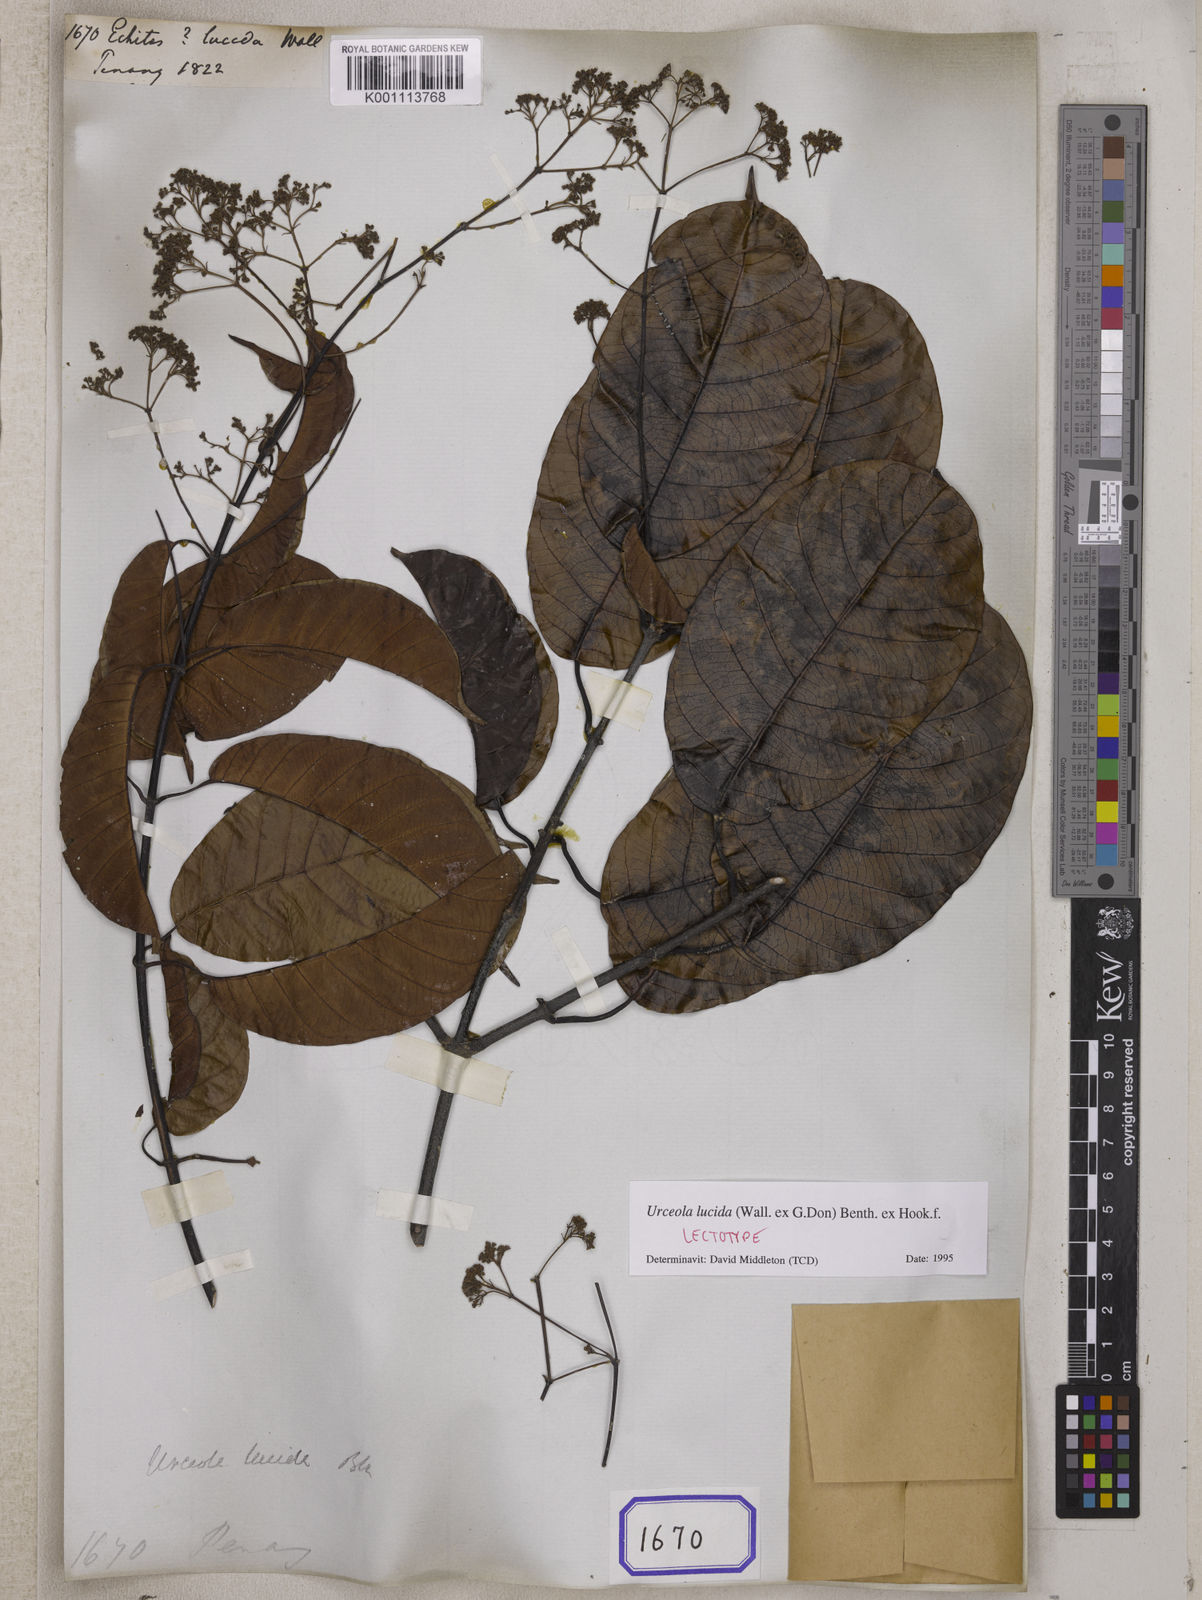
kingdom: Plantae
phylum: Tracheophyta
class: Magnoliopsida
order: Gentianales
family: Apocynaceae
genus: Echites
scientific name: Echites
